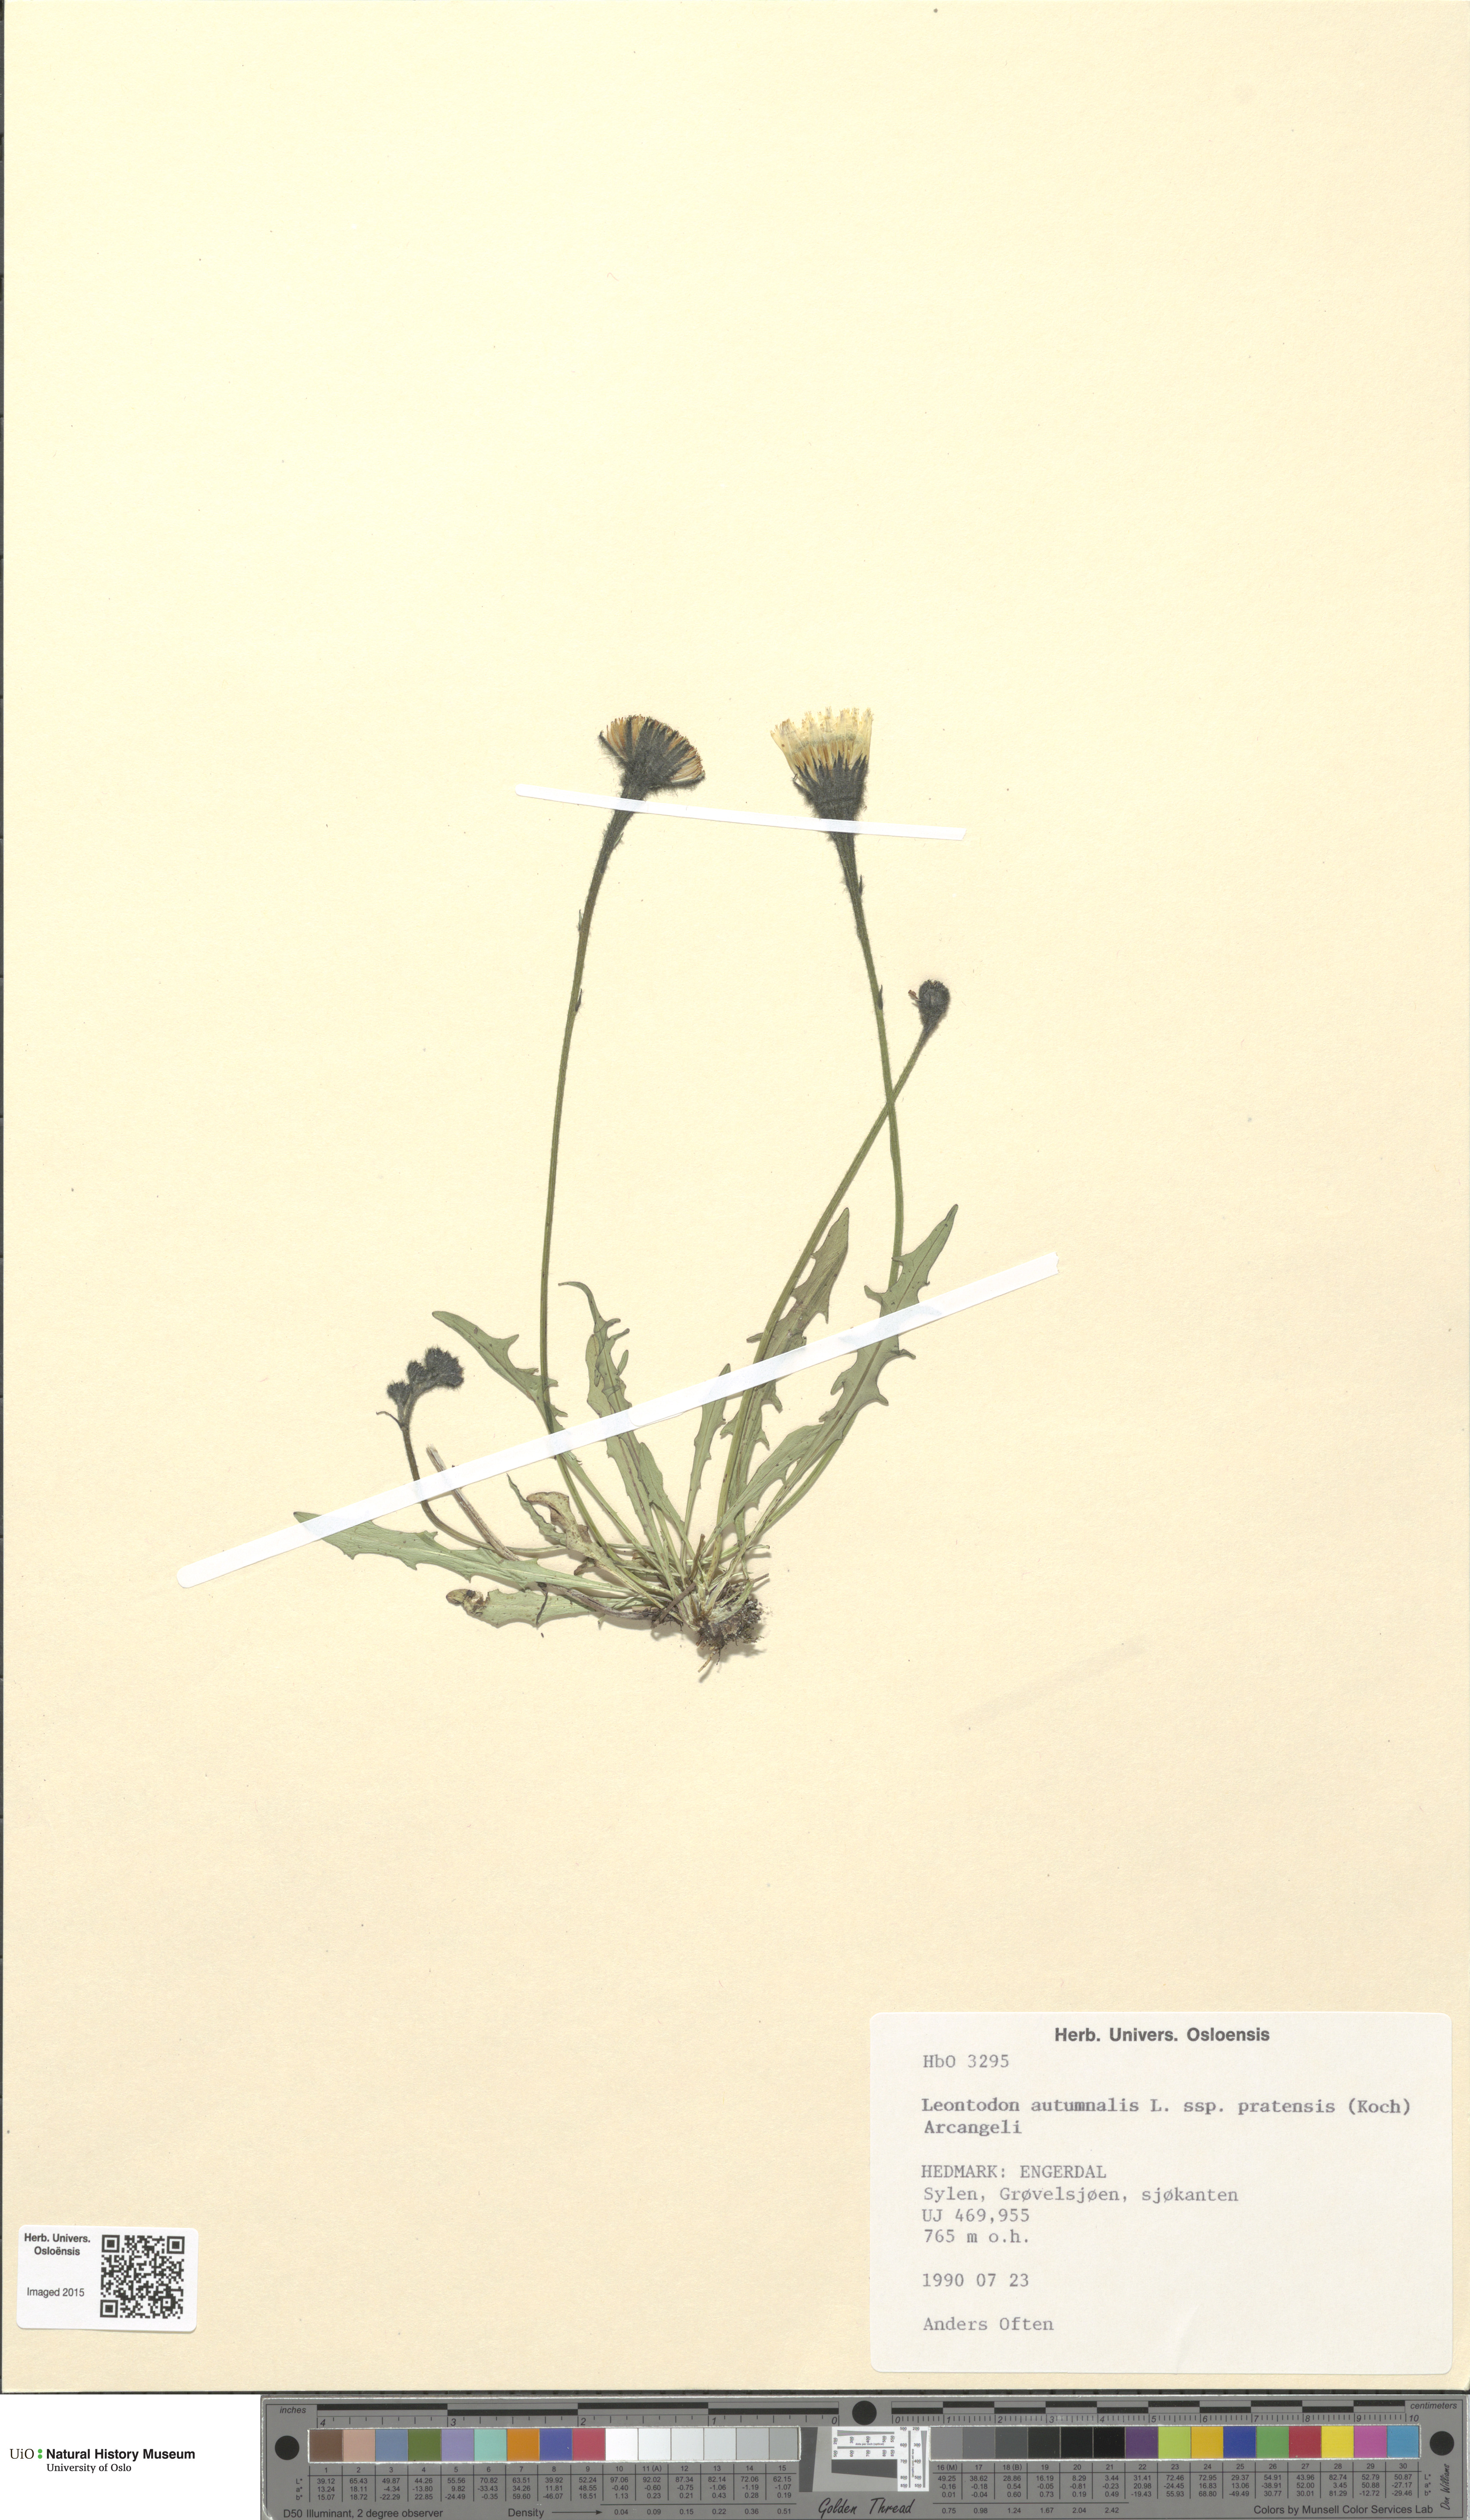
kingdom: Plantae
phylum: Tracheophyta
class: Magnoliopsida
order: Asterales
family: Asteraceae
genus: Scorzoneroides
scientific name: Scorzoneroides autumnalis
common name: Autumn hawkbit
